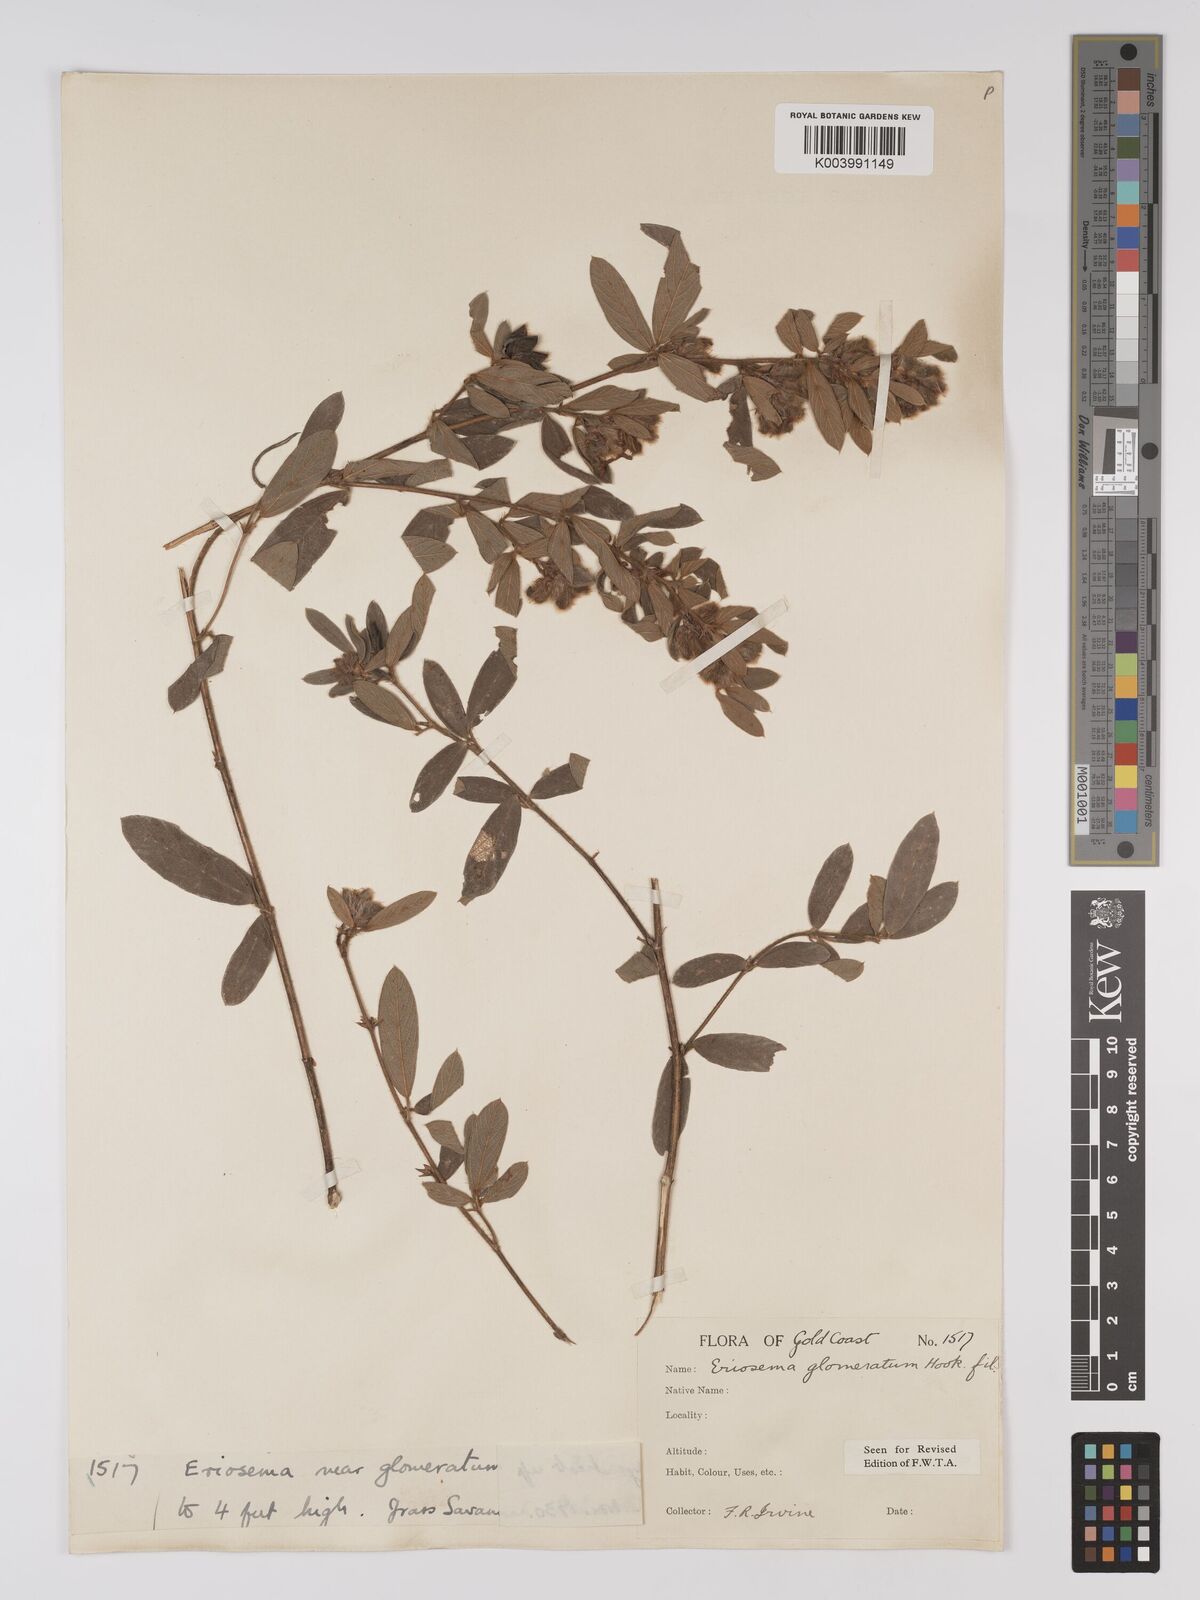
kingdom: Plantae
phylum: Tracheophyta
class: Magnoliopsida
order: Fabales
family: Fabaceae
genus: Eriosema
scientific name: Eriosema glomeratum
